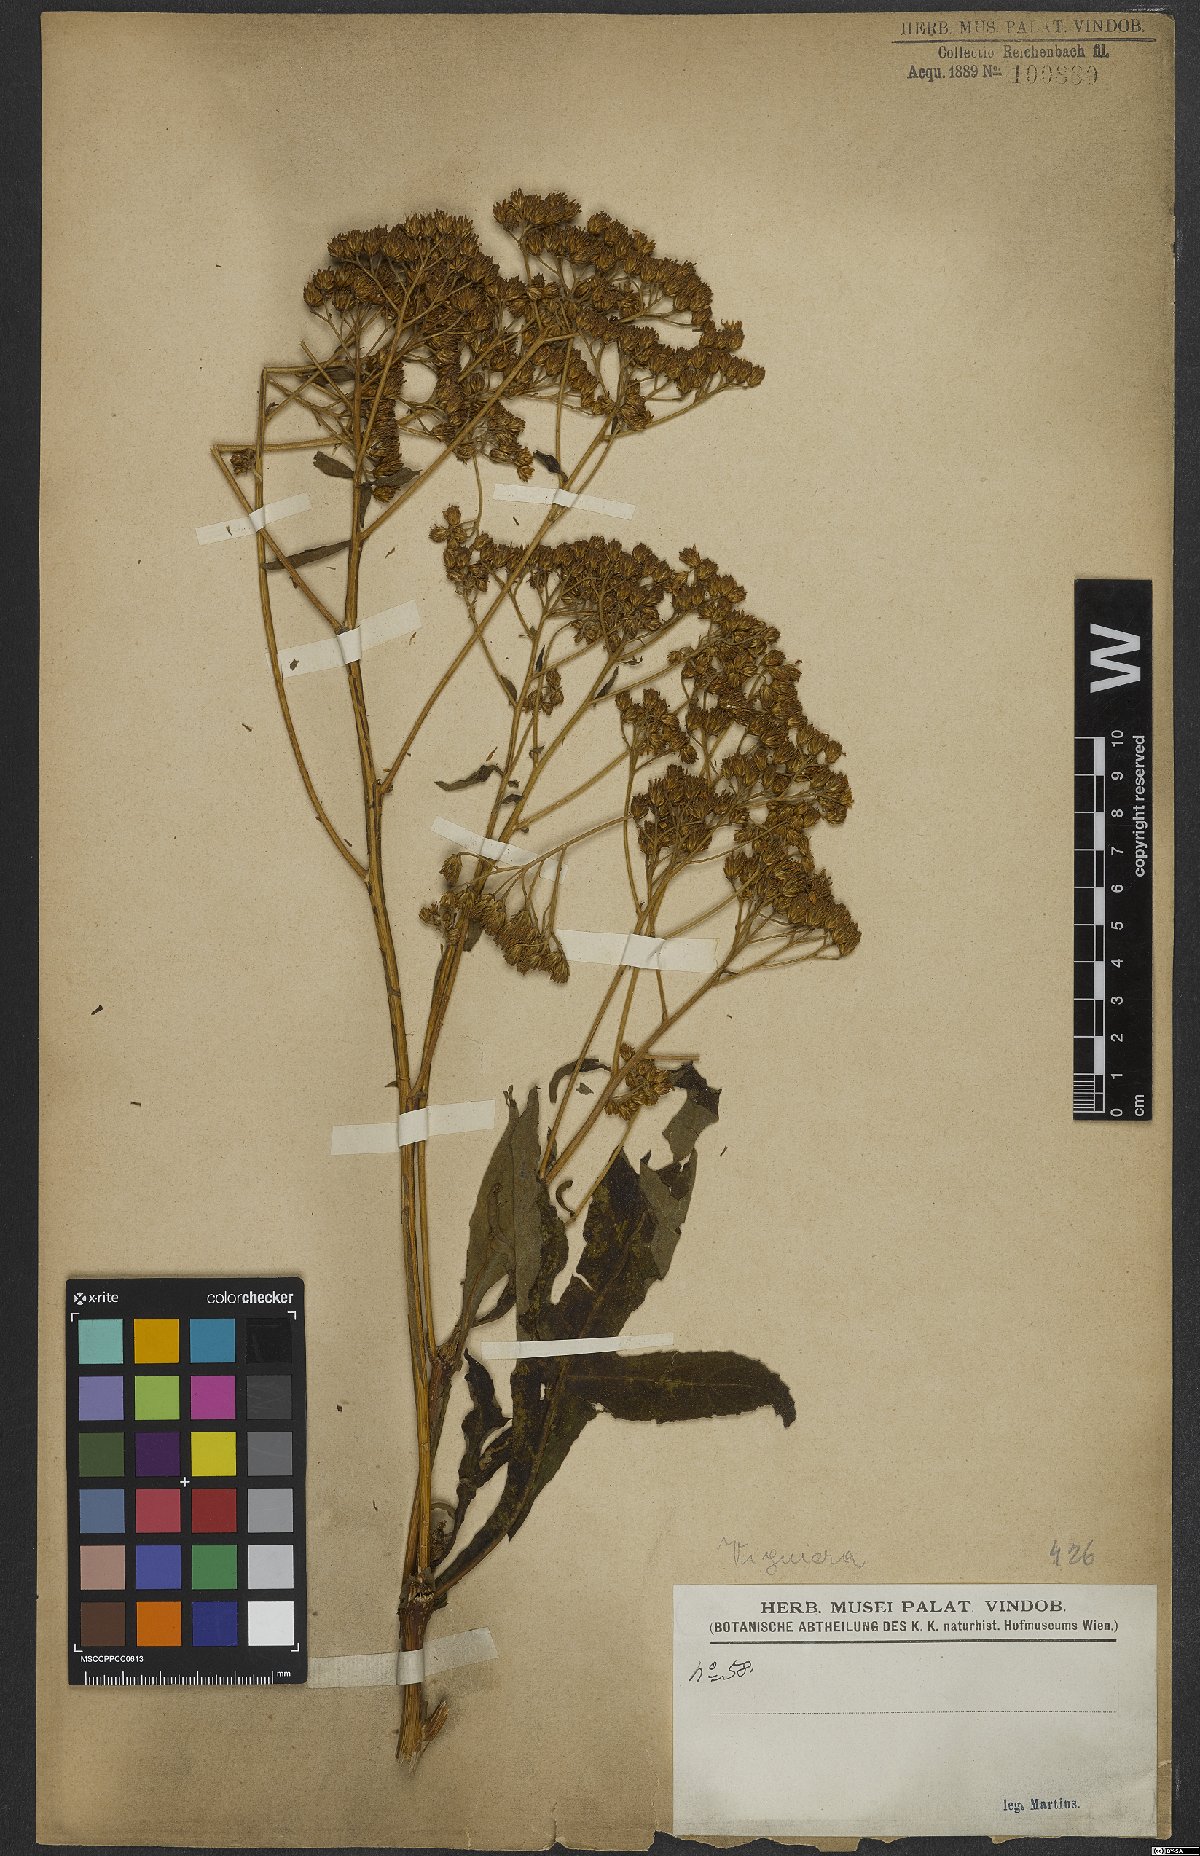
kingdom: Plantae
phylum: Tracheophyta
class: Magnoliopsida
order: Asterales
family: Asteraceae
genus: Viguiera
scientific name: Viguiera
